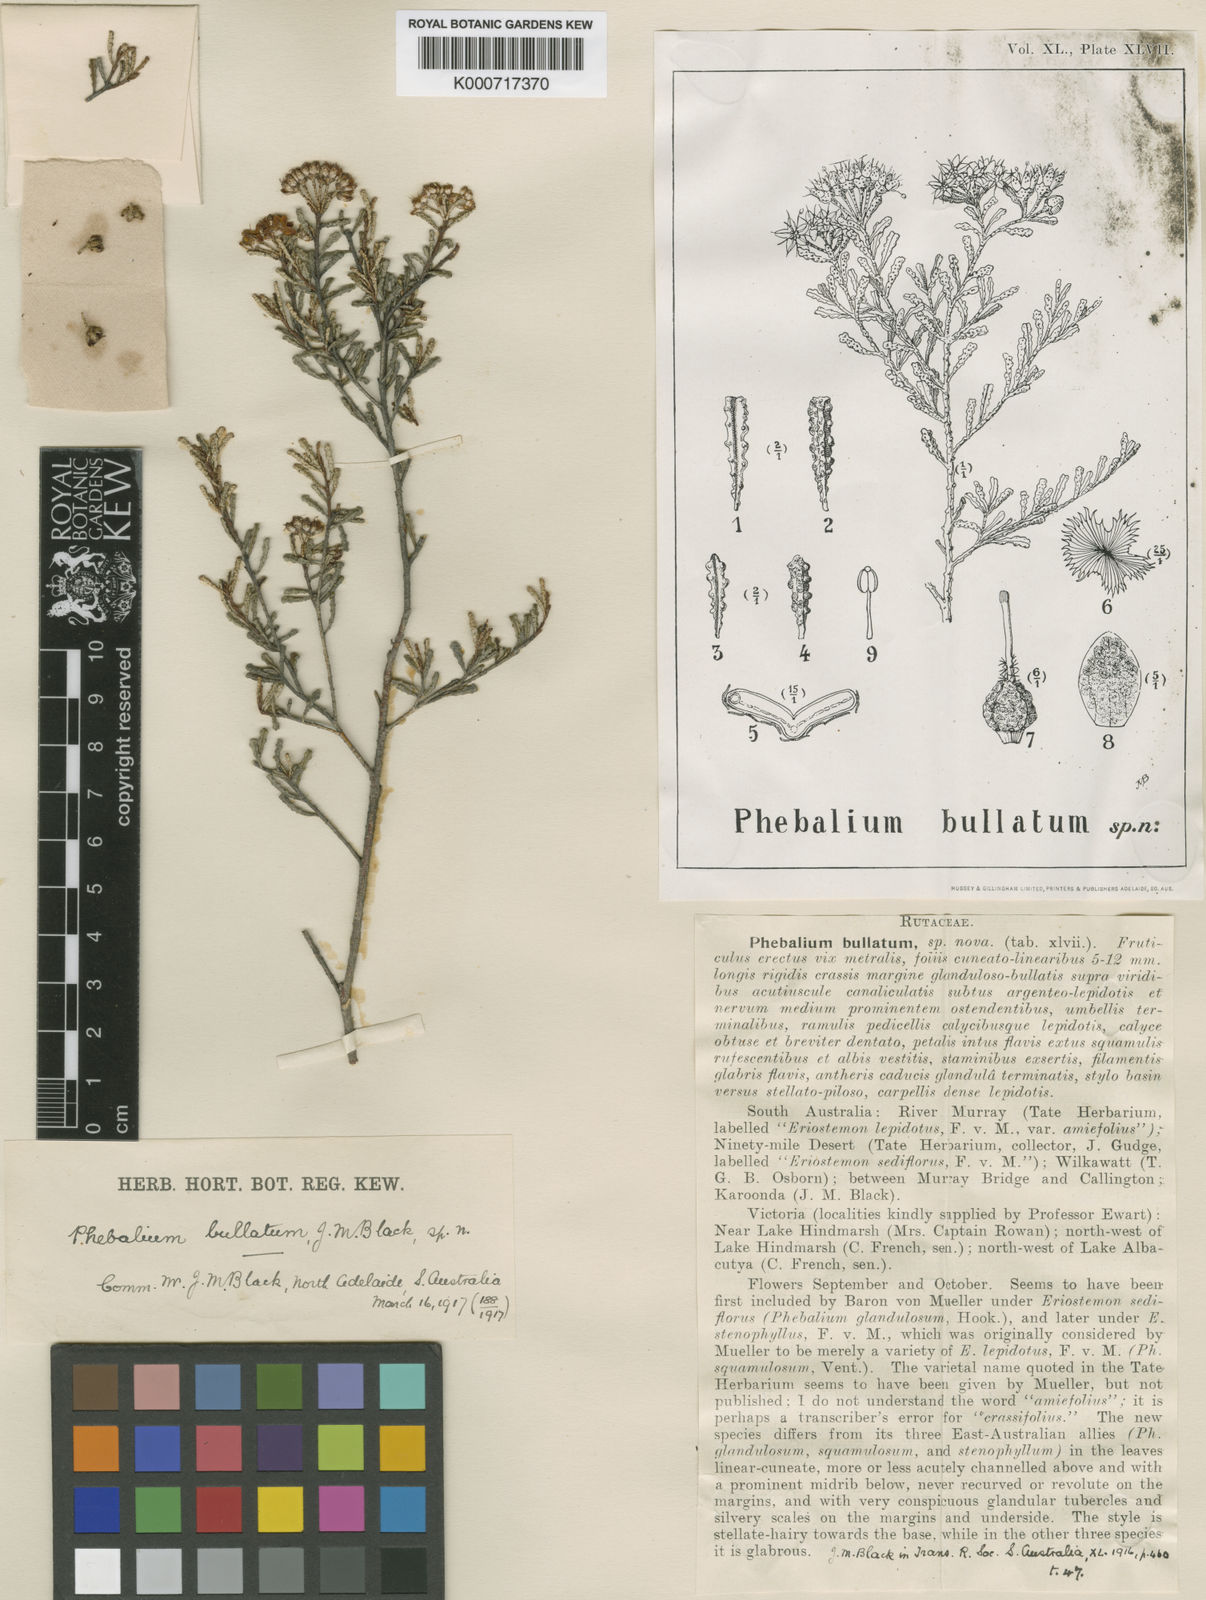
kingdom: Plantae
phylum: Tracheophyta
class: Magnoliopsida
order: Sapindales
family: Rutaceae
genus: Phebalium
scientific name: Phebalium bullatum
